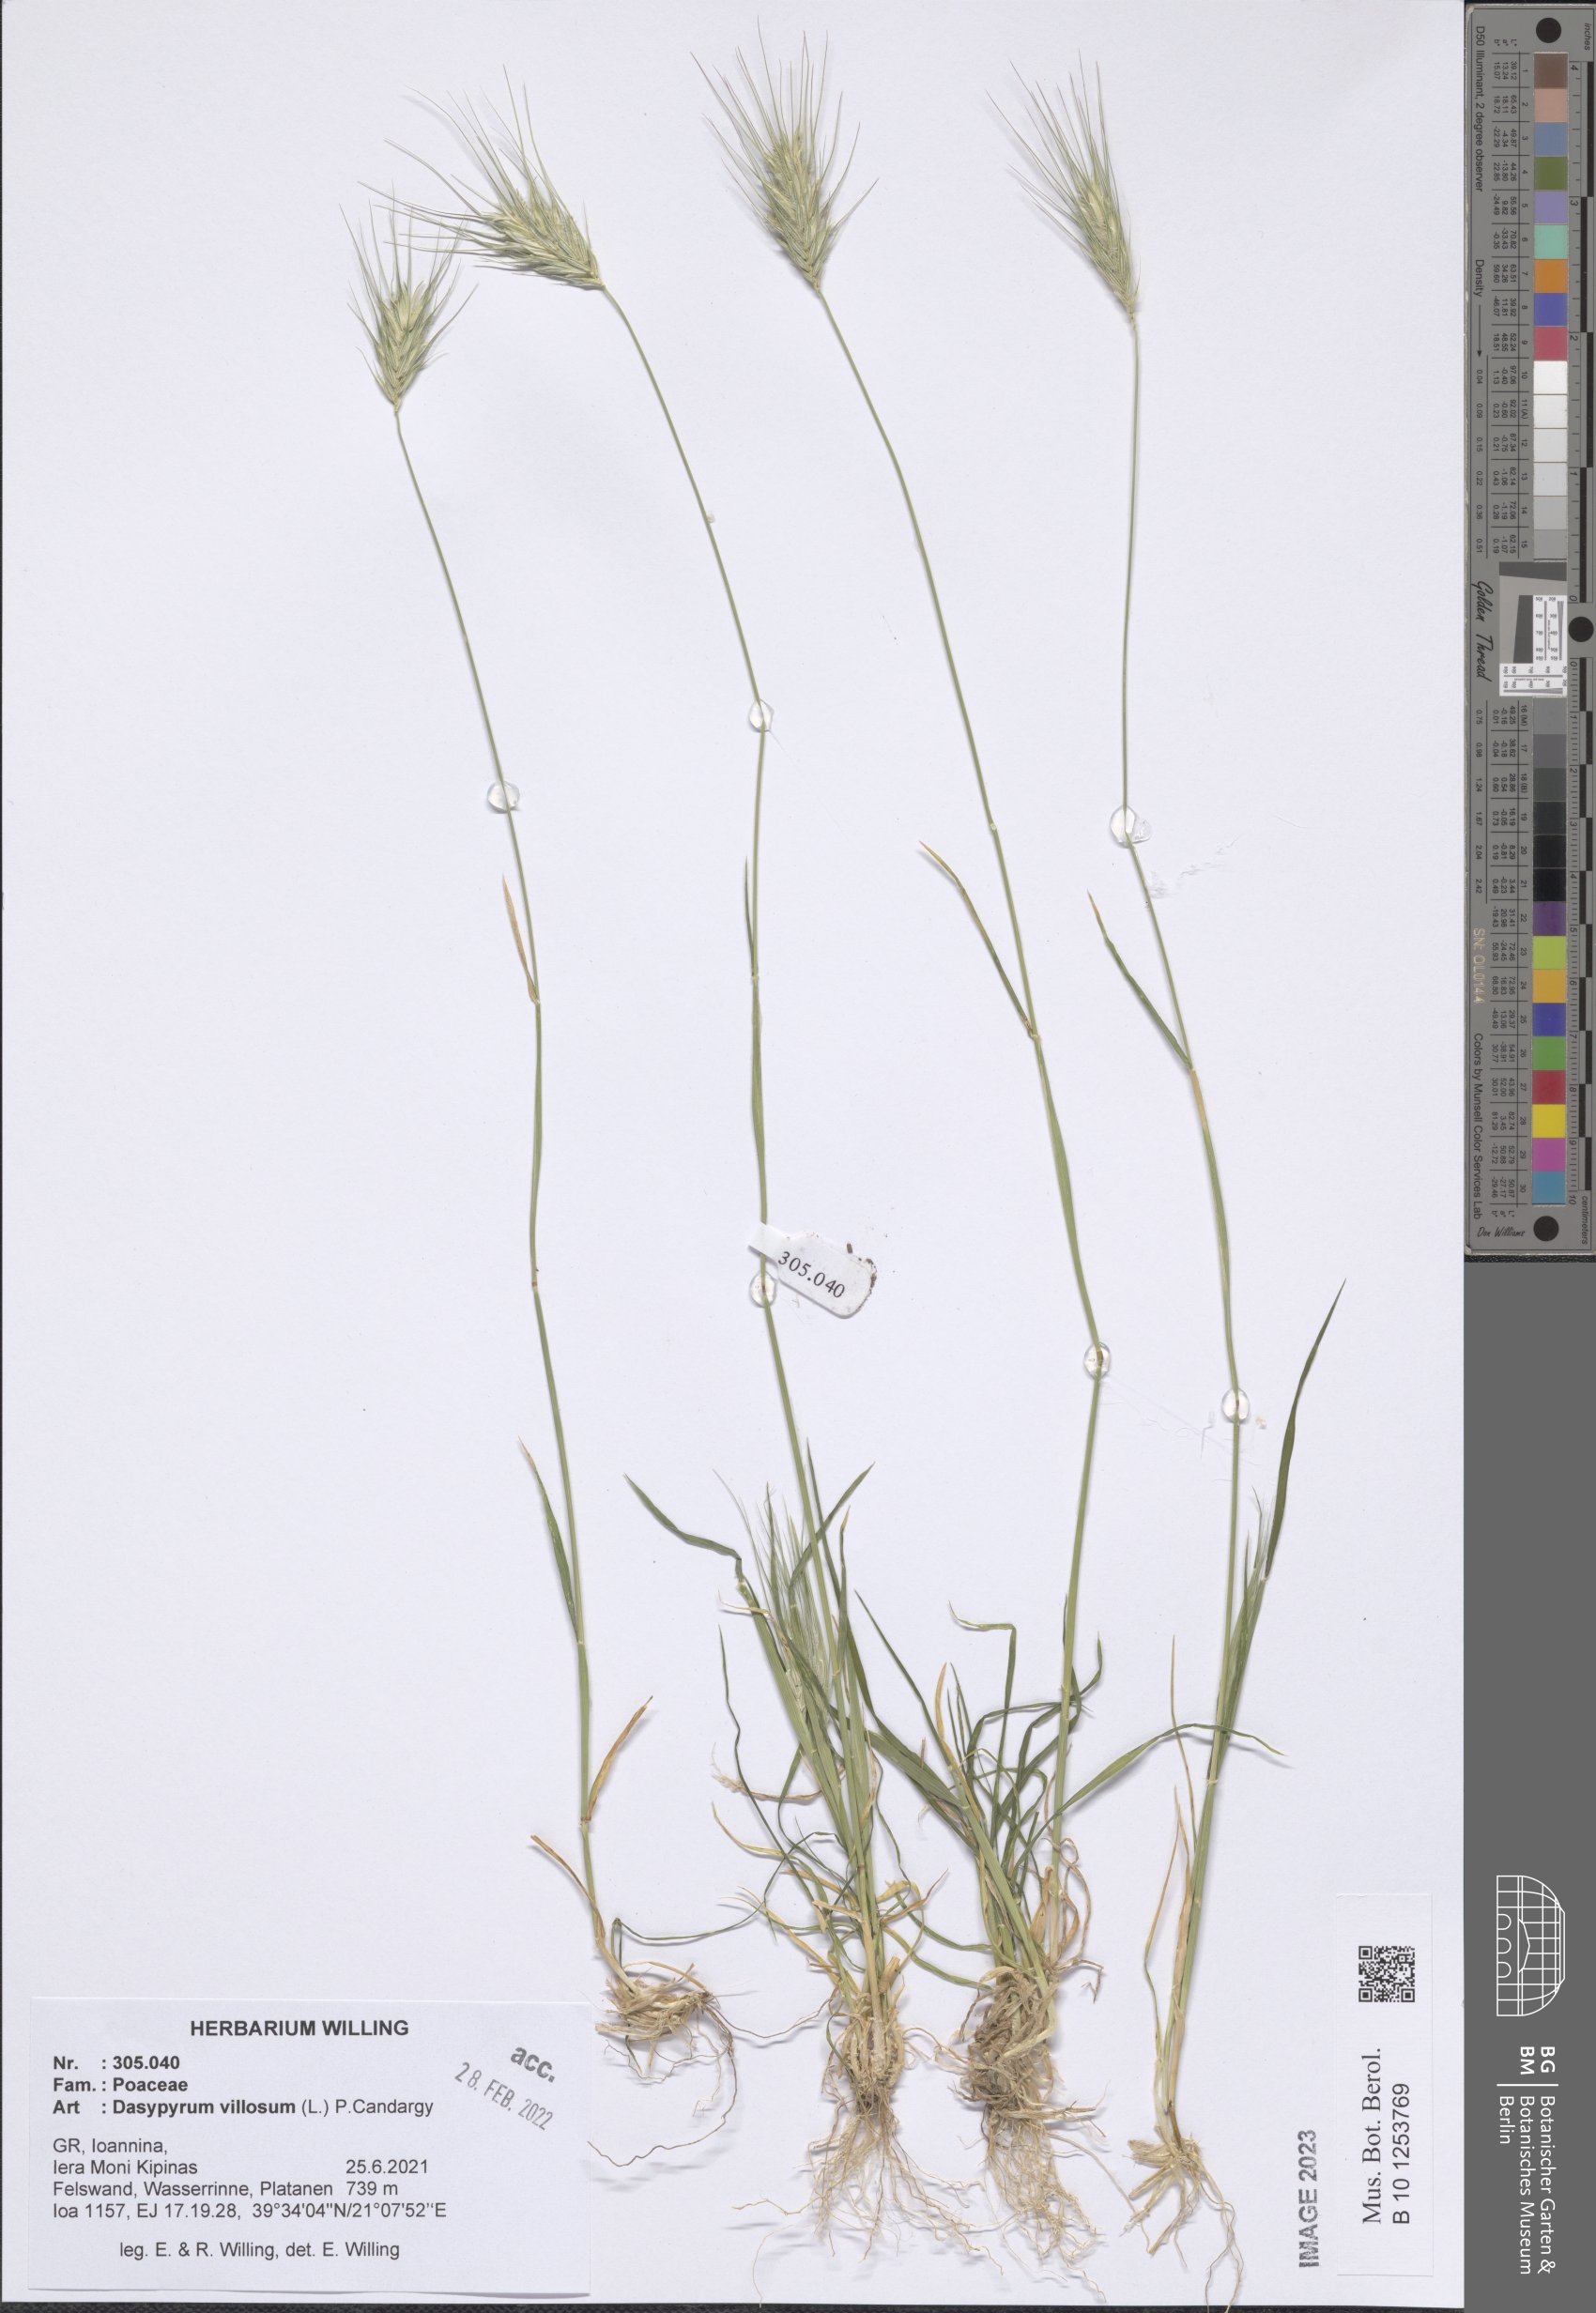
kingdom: Plantae
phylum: Tracheophyta
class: Liliopsida
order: Poales
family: Poaceae
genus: Dasypyrum
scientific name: Dasypyrum villosum
